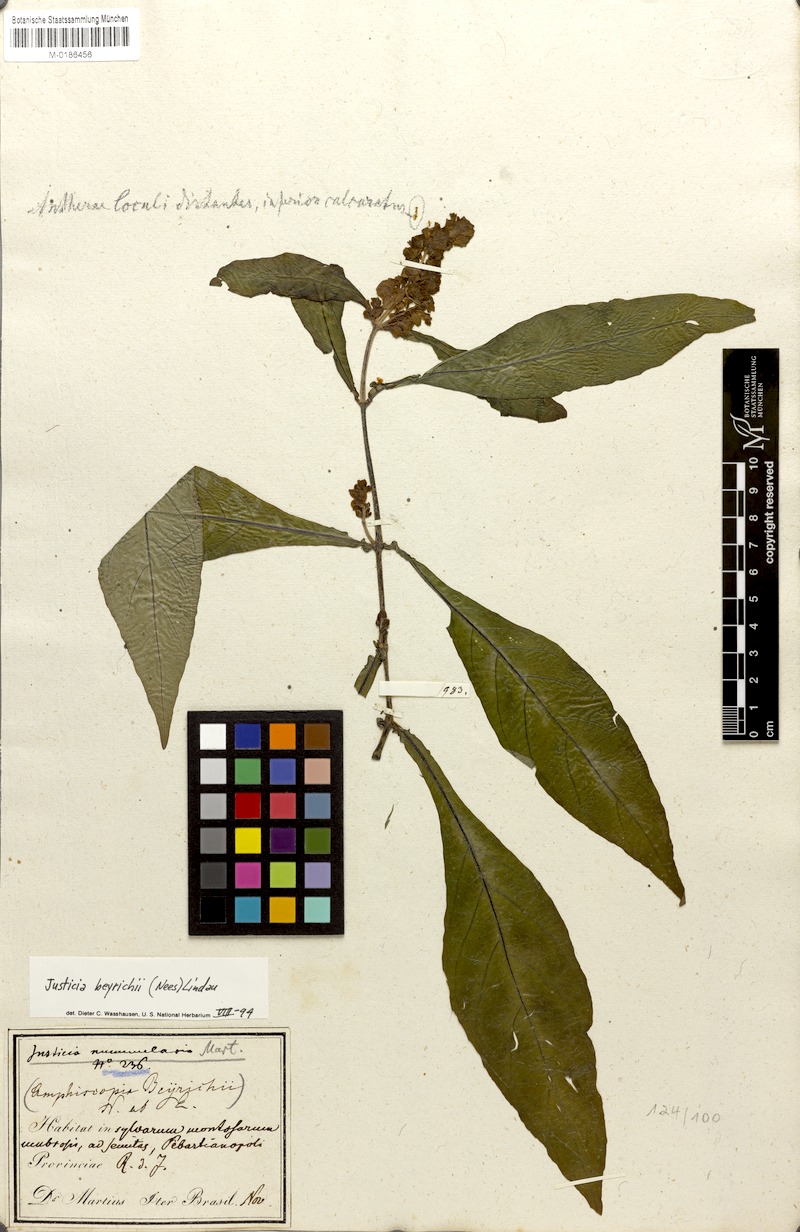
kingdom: Plantae
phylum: Tracheophyta
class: Magnoliopsida
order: Lamiales
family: Acanthaceae
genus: Dianthera
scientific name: Dianthera brasiliensis
